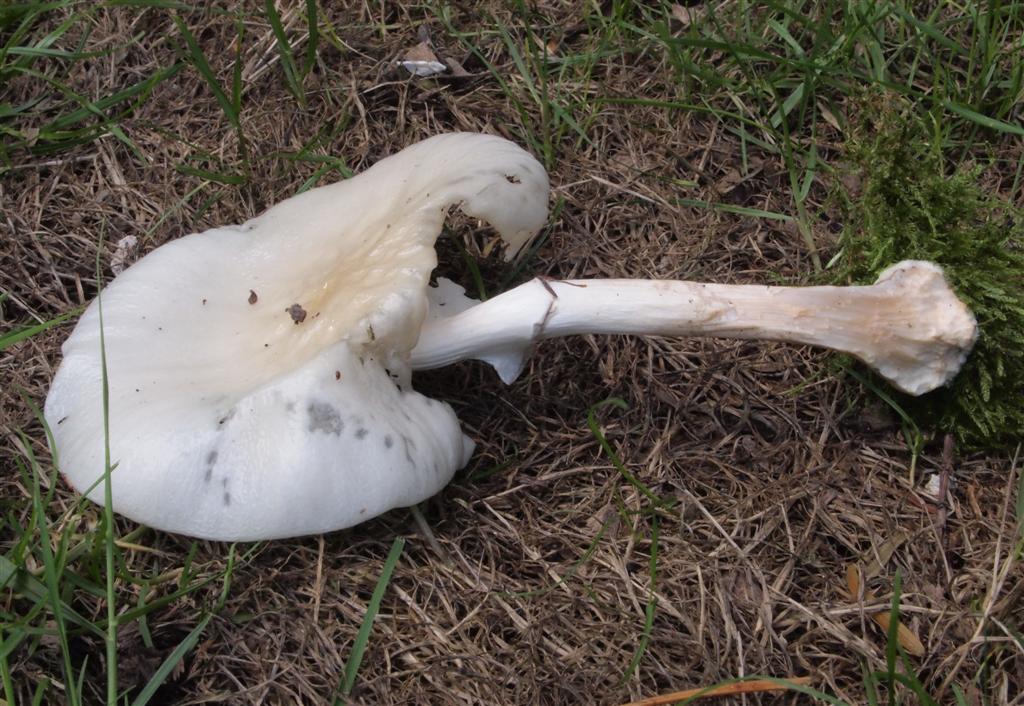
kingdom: Fungi
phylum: Basidiomycota
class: Agaricomycetes
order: Agaricales
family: Physalacriaceae
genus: Mucidula
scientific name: Mucidula mucida
